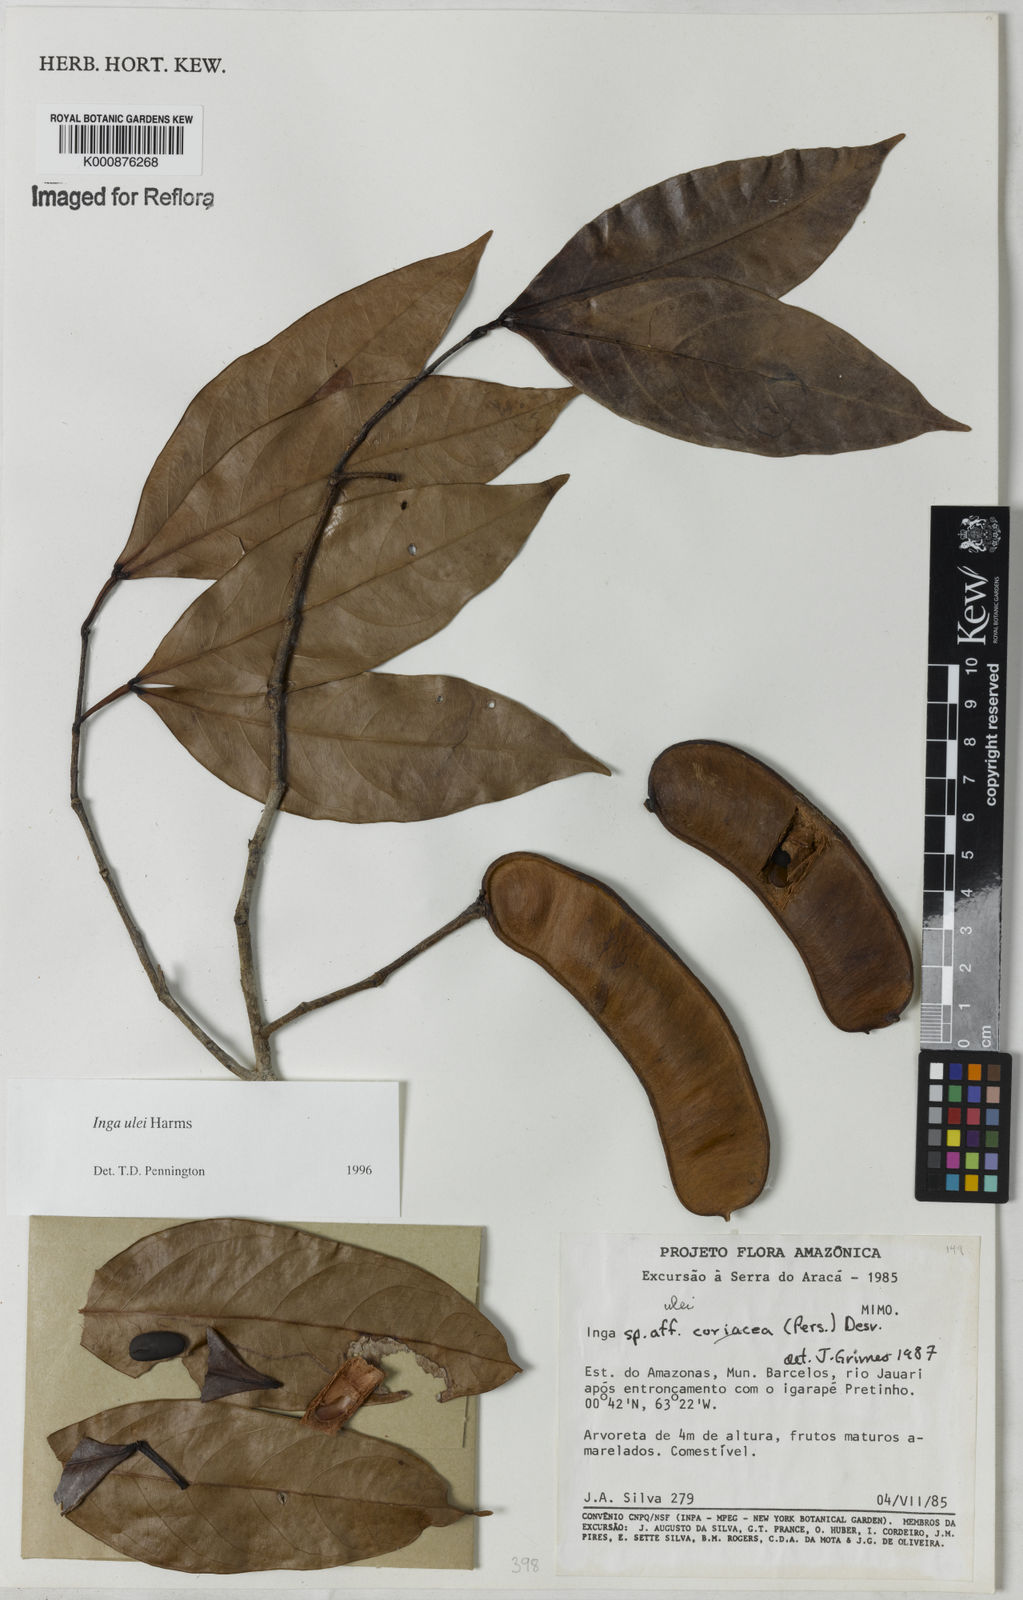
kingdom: Plantae
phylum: Tracheophyta
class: Magnoliopsida
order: Fabales
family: Fabaceae
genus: Inga
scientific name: Inga ulei
